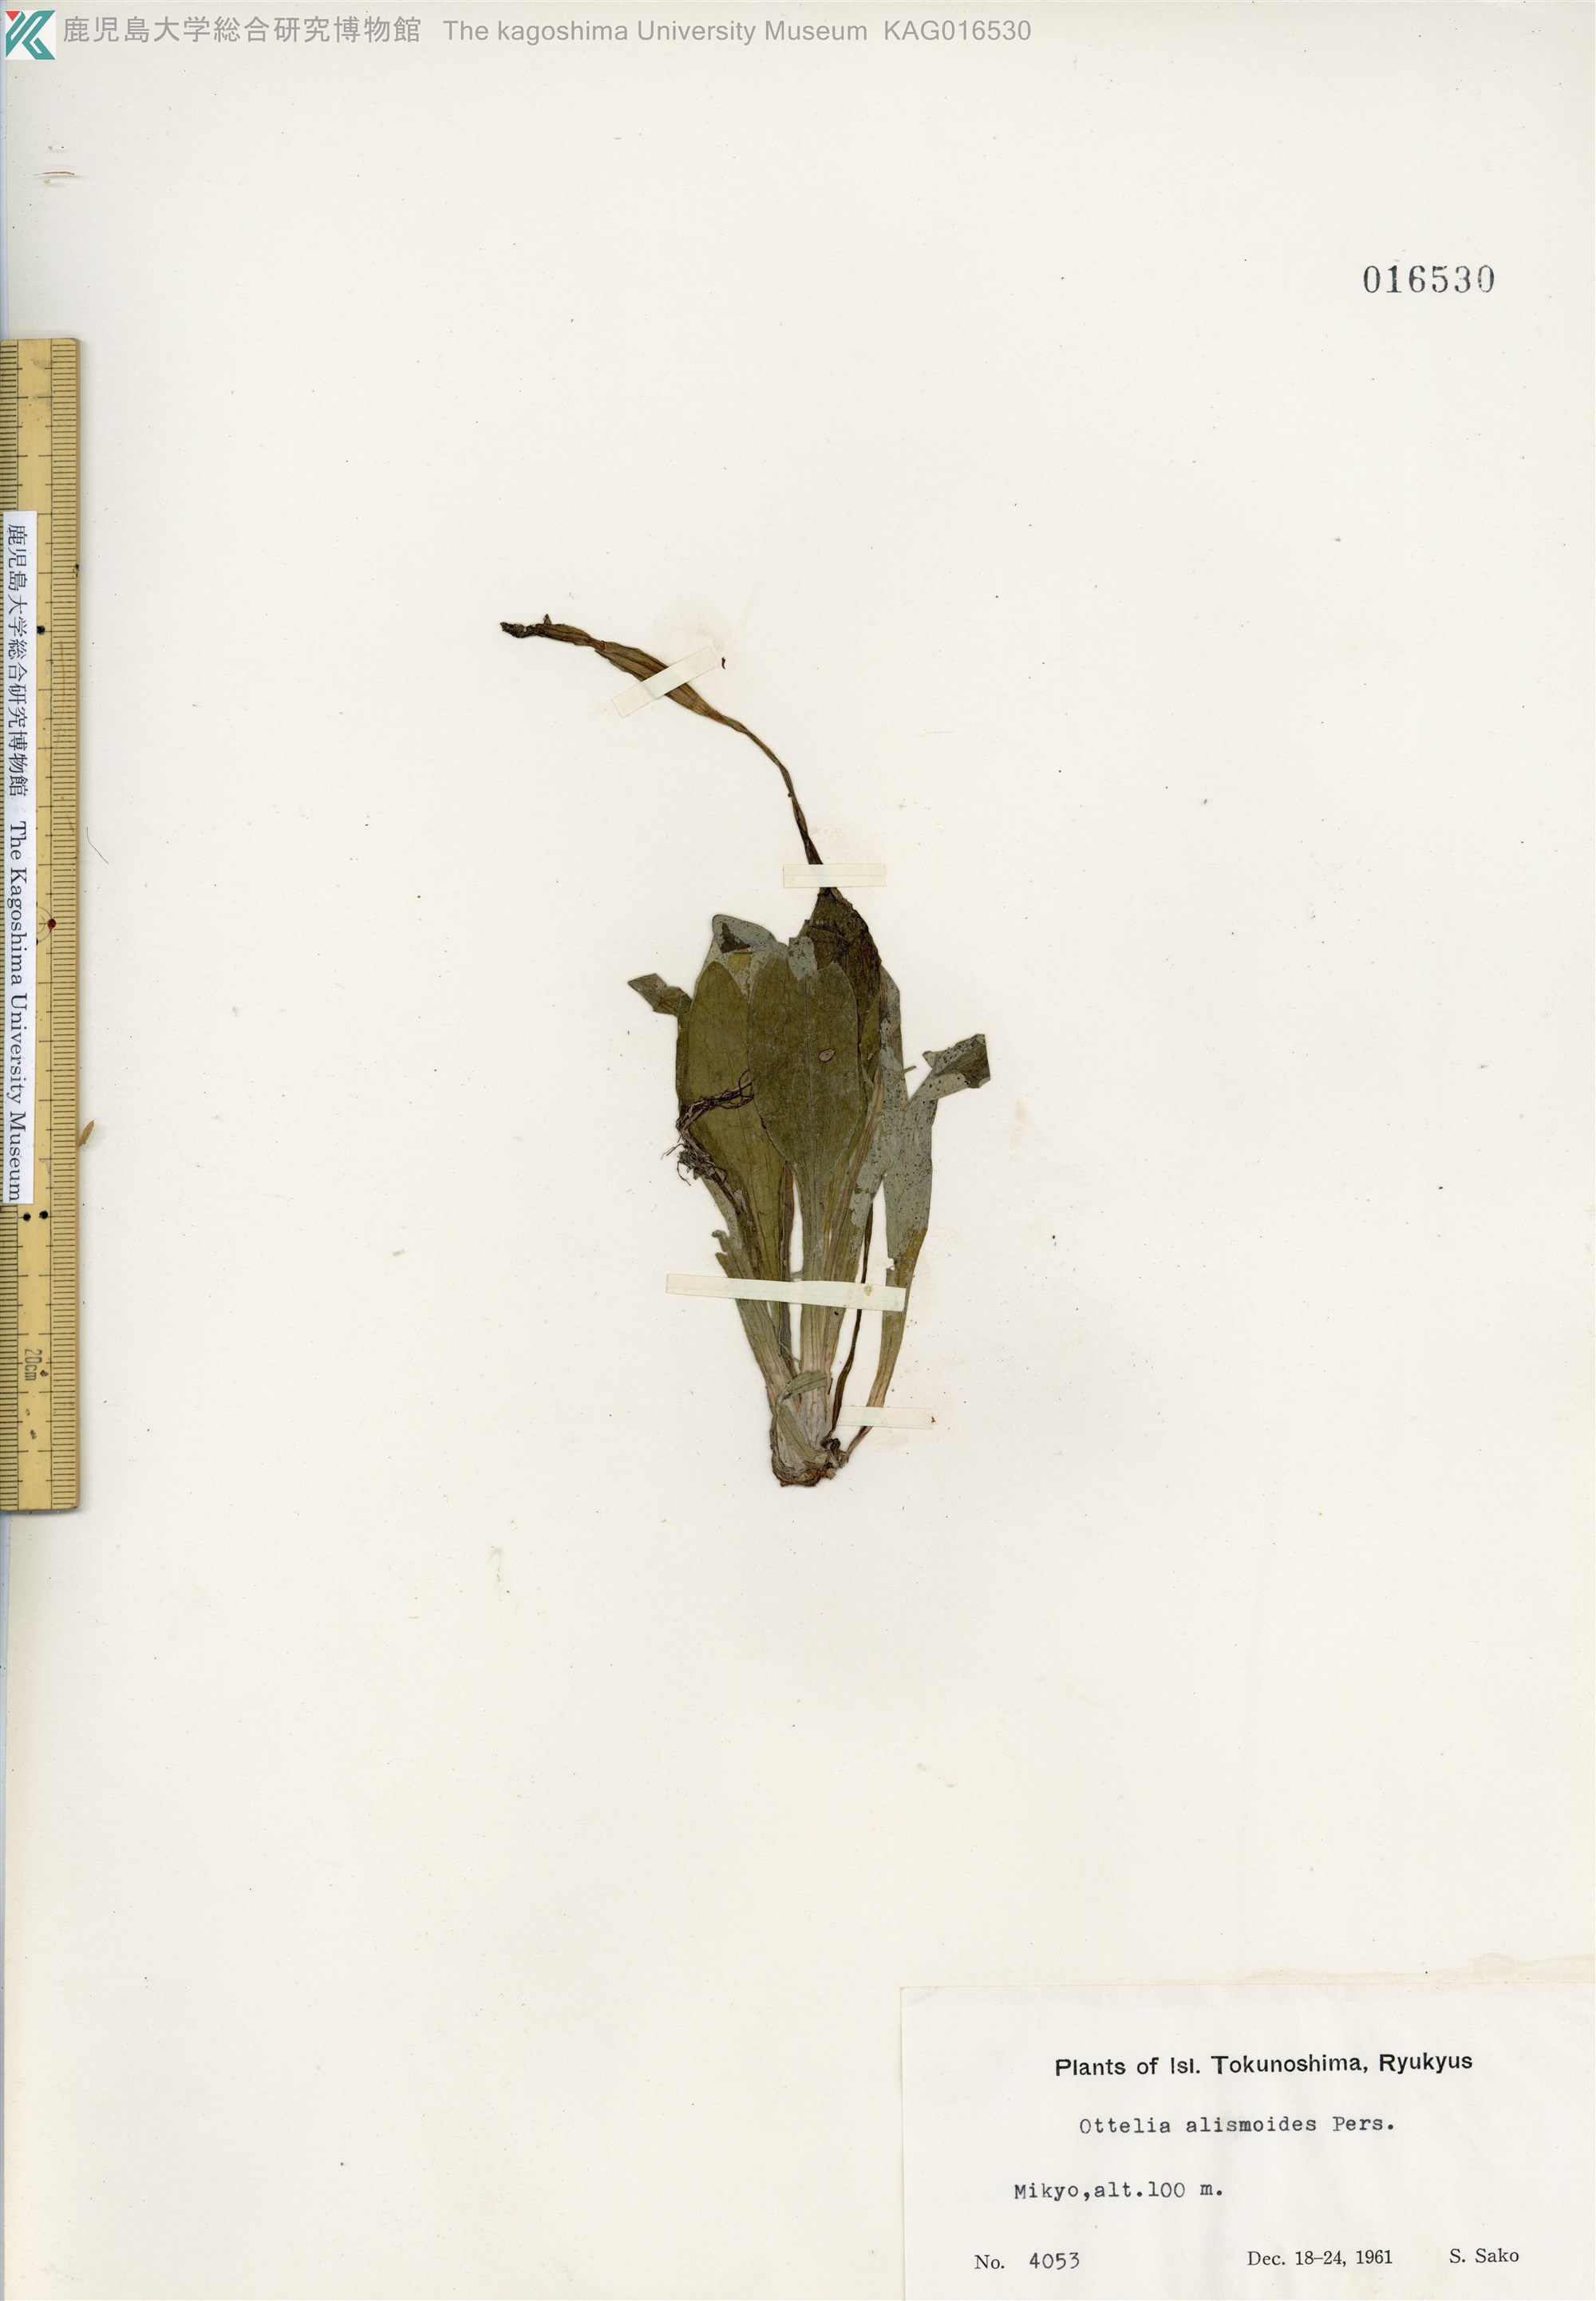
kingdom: Plantae
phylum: Tracheophyta
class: Liliopsida
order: Alismatales
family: Hydrocharitaceae
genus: Ottelia
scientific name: Ottelia alismoides
